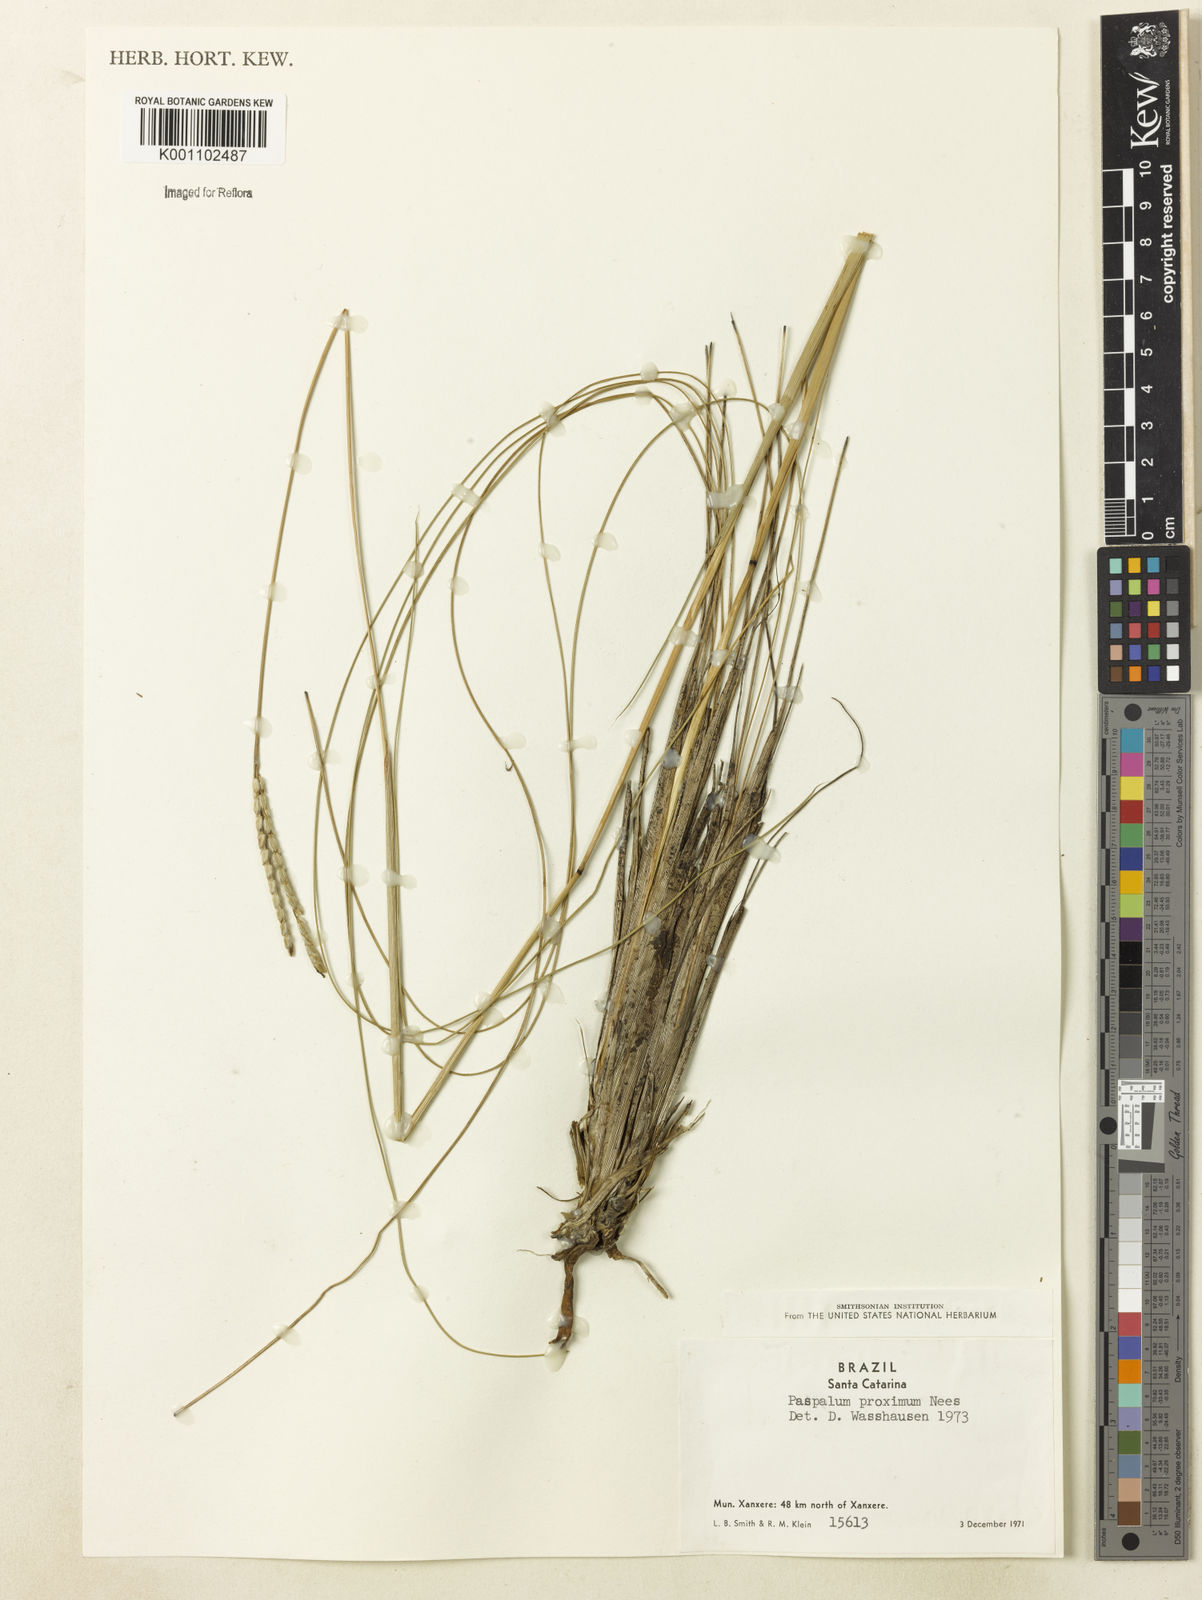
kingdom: Plantae
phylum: Tracheophyta
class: Liliopsida
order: Poales
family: Poaceae
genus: Paspalum
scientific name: Paspalum ellipticum
